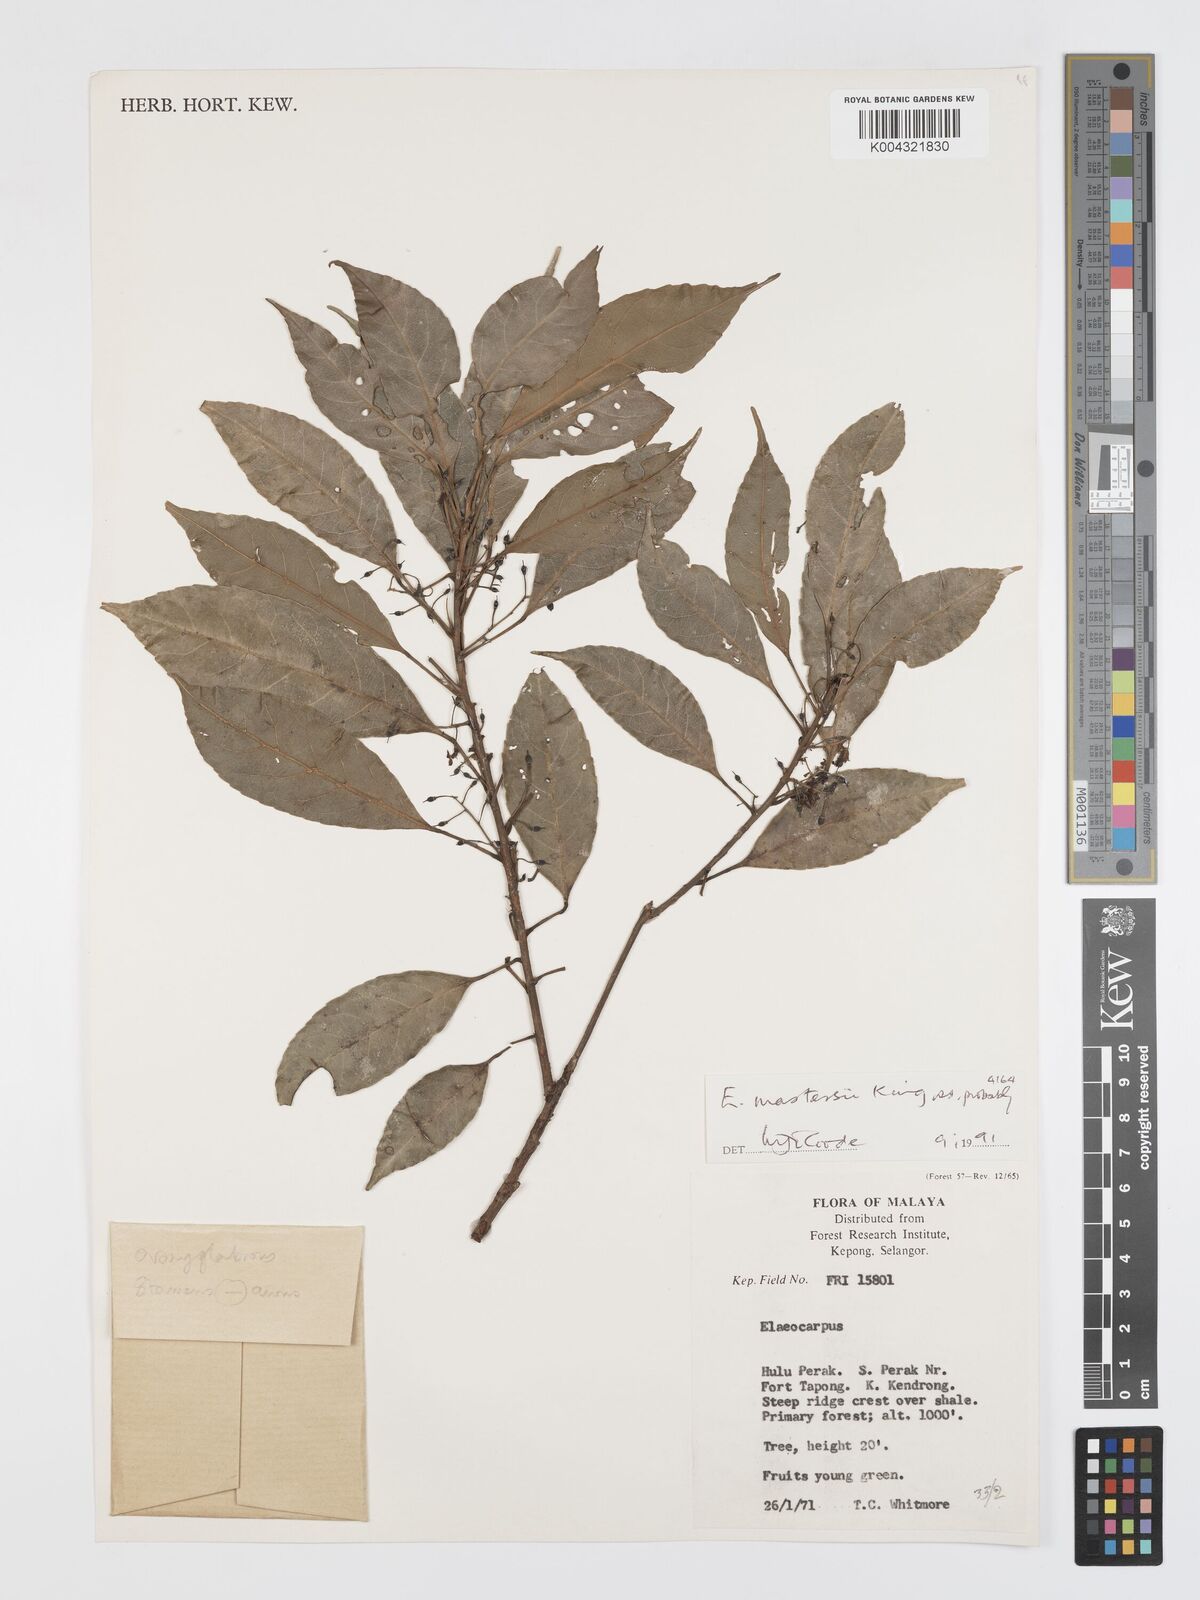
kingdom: Plantae
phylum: Tracheophyta
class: Magnoliopsida
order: Oxalidales
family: Elaeocarpaceae
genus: Elaeocarpus
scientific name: Elaeocarpus mastersii
